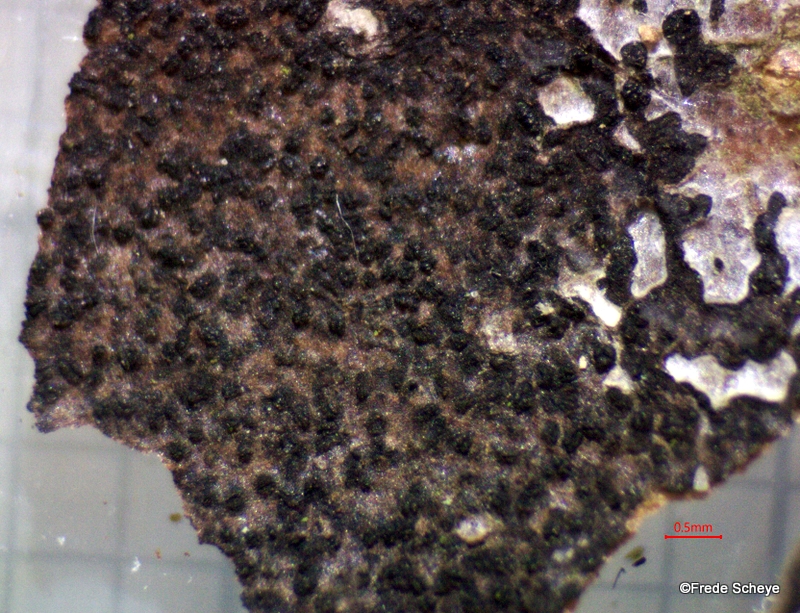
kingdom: Fungi
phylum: Ascomycota
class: Leotiomycetes
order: Rhytismatales
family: Ascodichaenaceae
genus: Ascodichaena
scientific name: Ascodichaena rugosa
